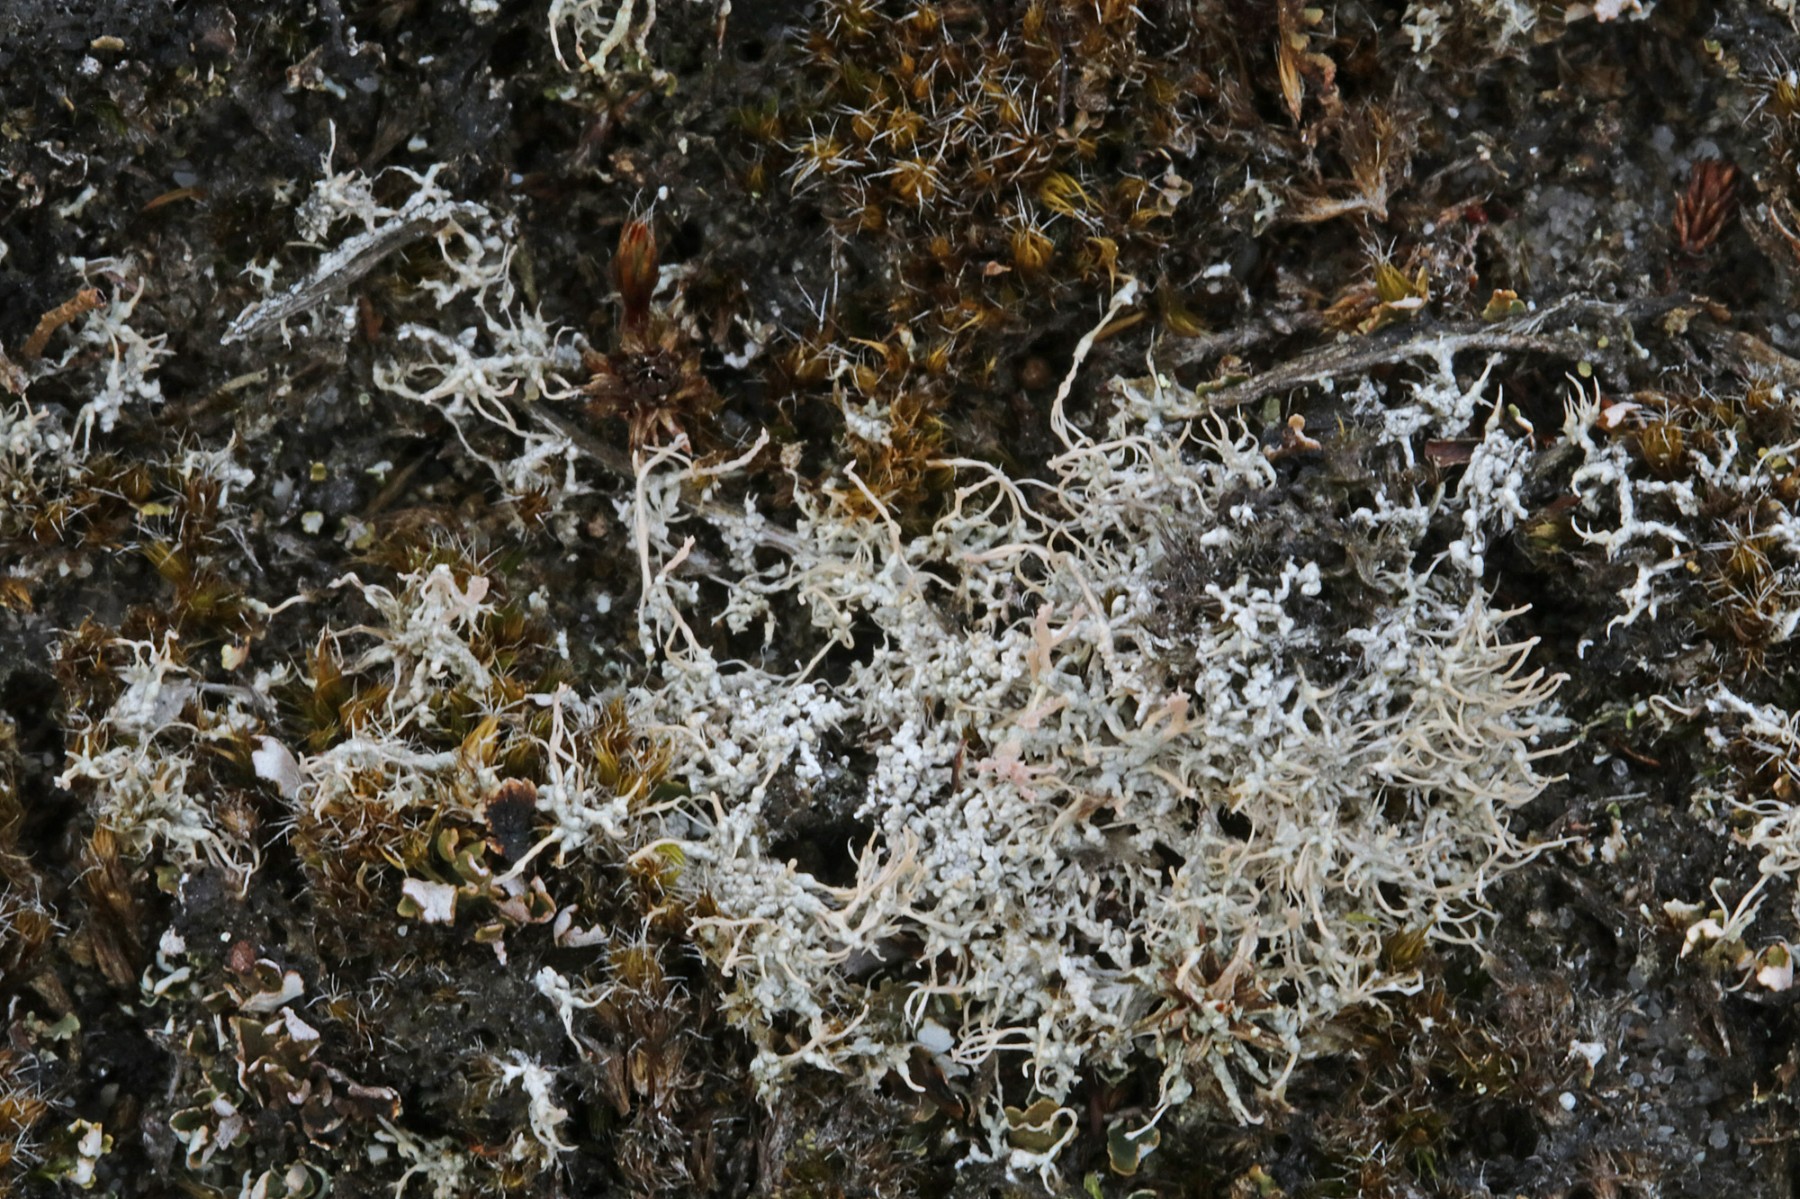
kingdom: Fungi
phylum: Ascomycota
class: Lecanoromycetes
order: Pertusariales
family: Ochrolechiaceae
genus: Ochrolechia
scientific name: Ochrolechia frigida
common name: fjeld-blegskivelav
